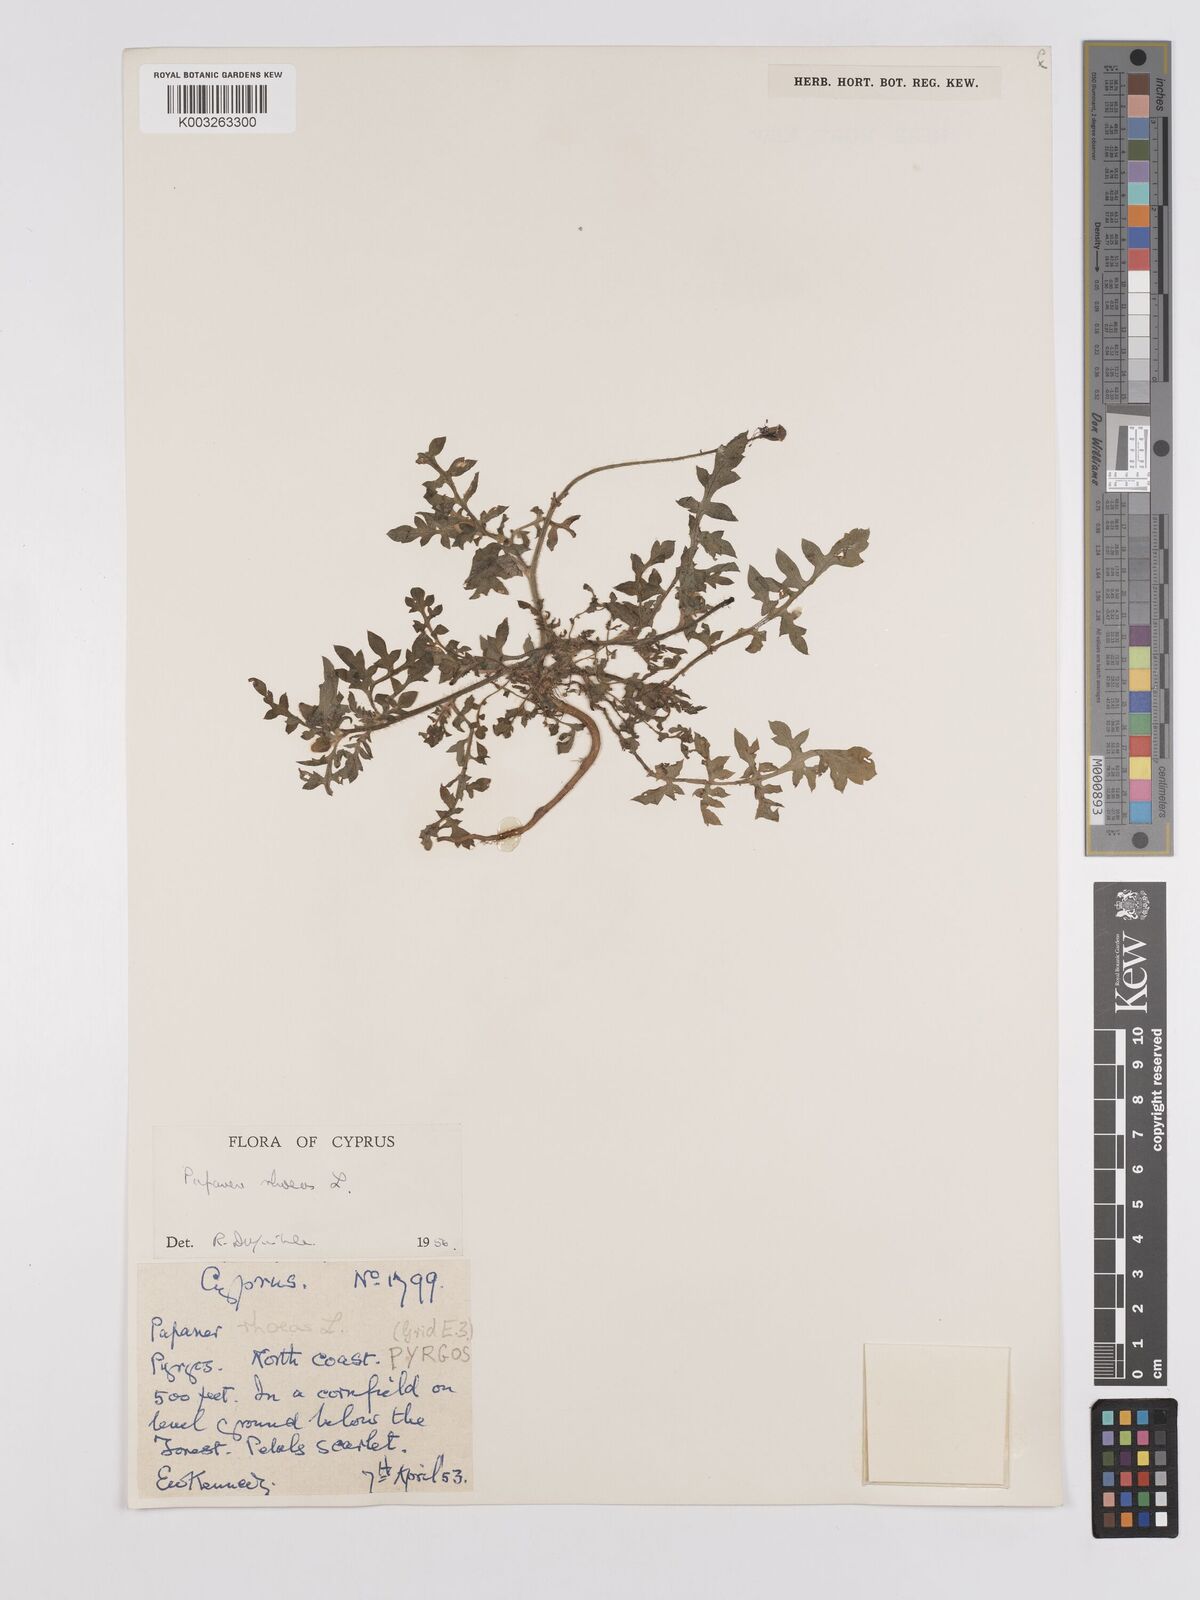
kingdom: Plantae
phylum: Tracheophyta
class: Magnoliopsida
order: Ranunculales
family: Papaveraceae
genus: Papaver
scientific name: Papaver rhoeas
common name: Corn poppy
